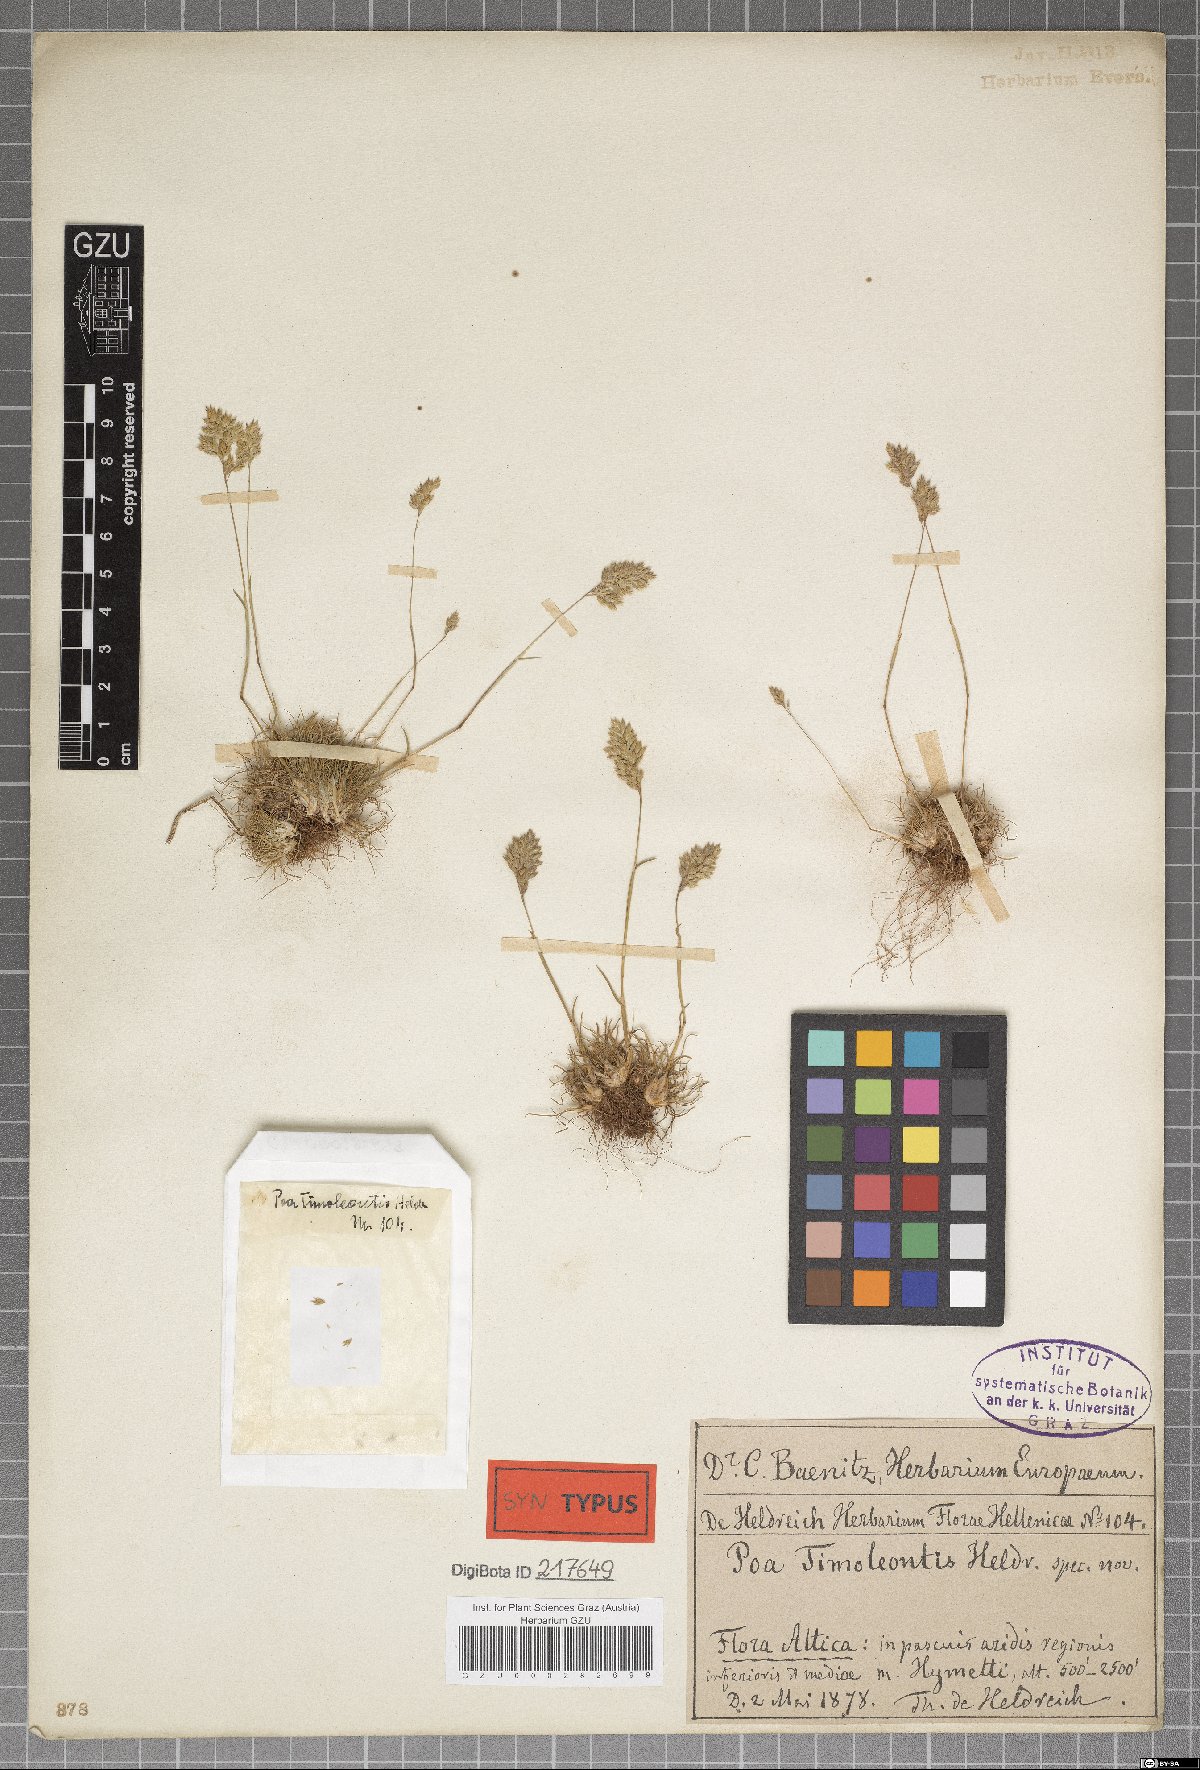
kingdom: Plantae
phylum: Tracheophyta
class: Liliopsida
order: Poales
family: Poaceae
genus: Poa
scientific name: Poa timoleontis
